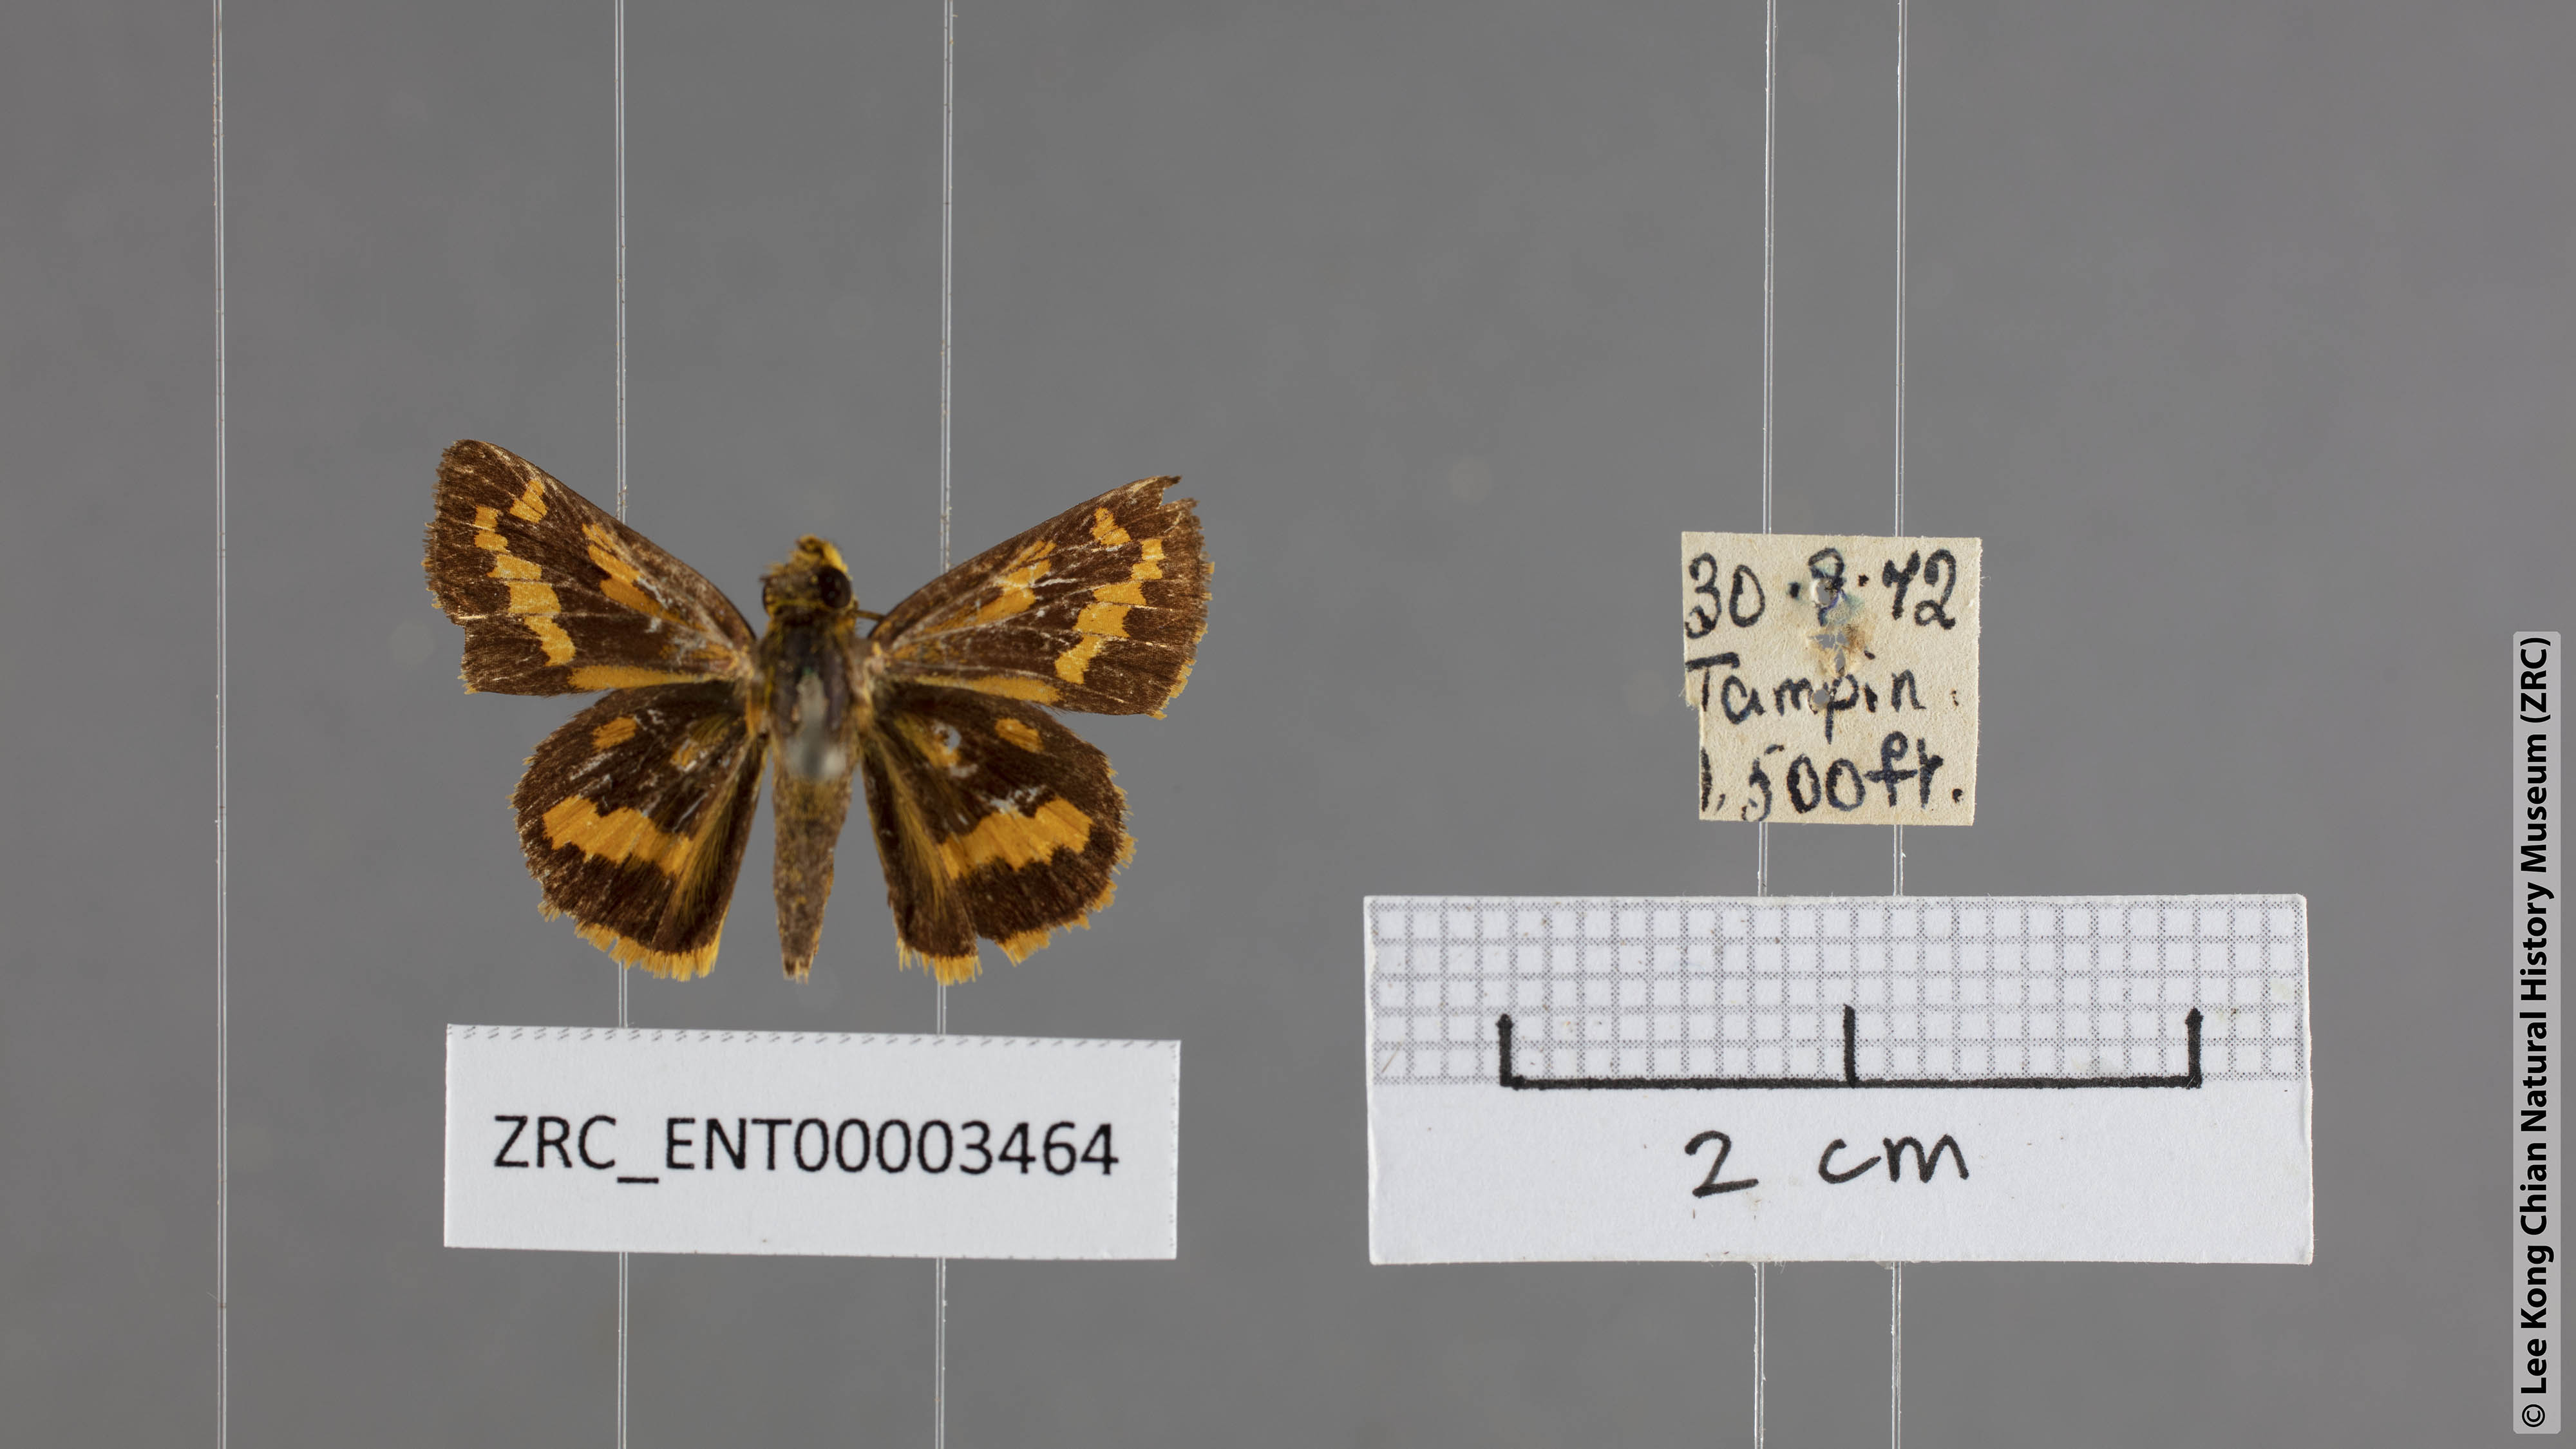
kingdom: Animalia
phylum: Arthropoda
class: Insecta
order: Lepidoptera
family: Hesperiidae
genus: Potanthus
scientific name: Potanthus ganda
